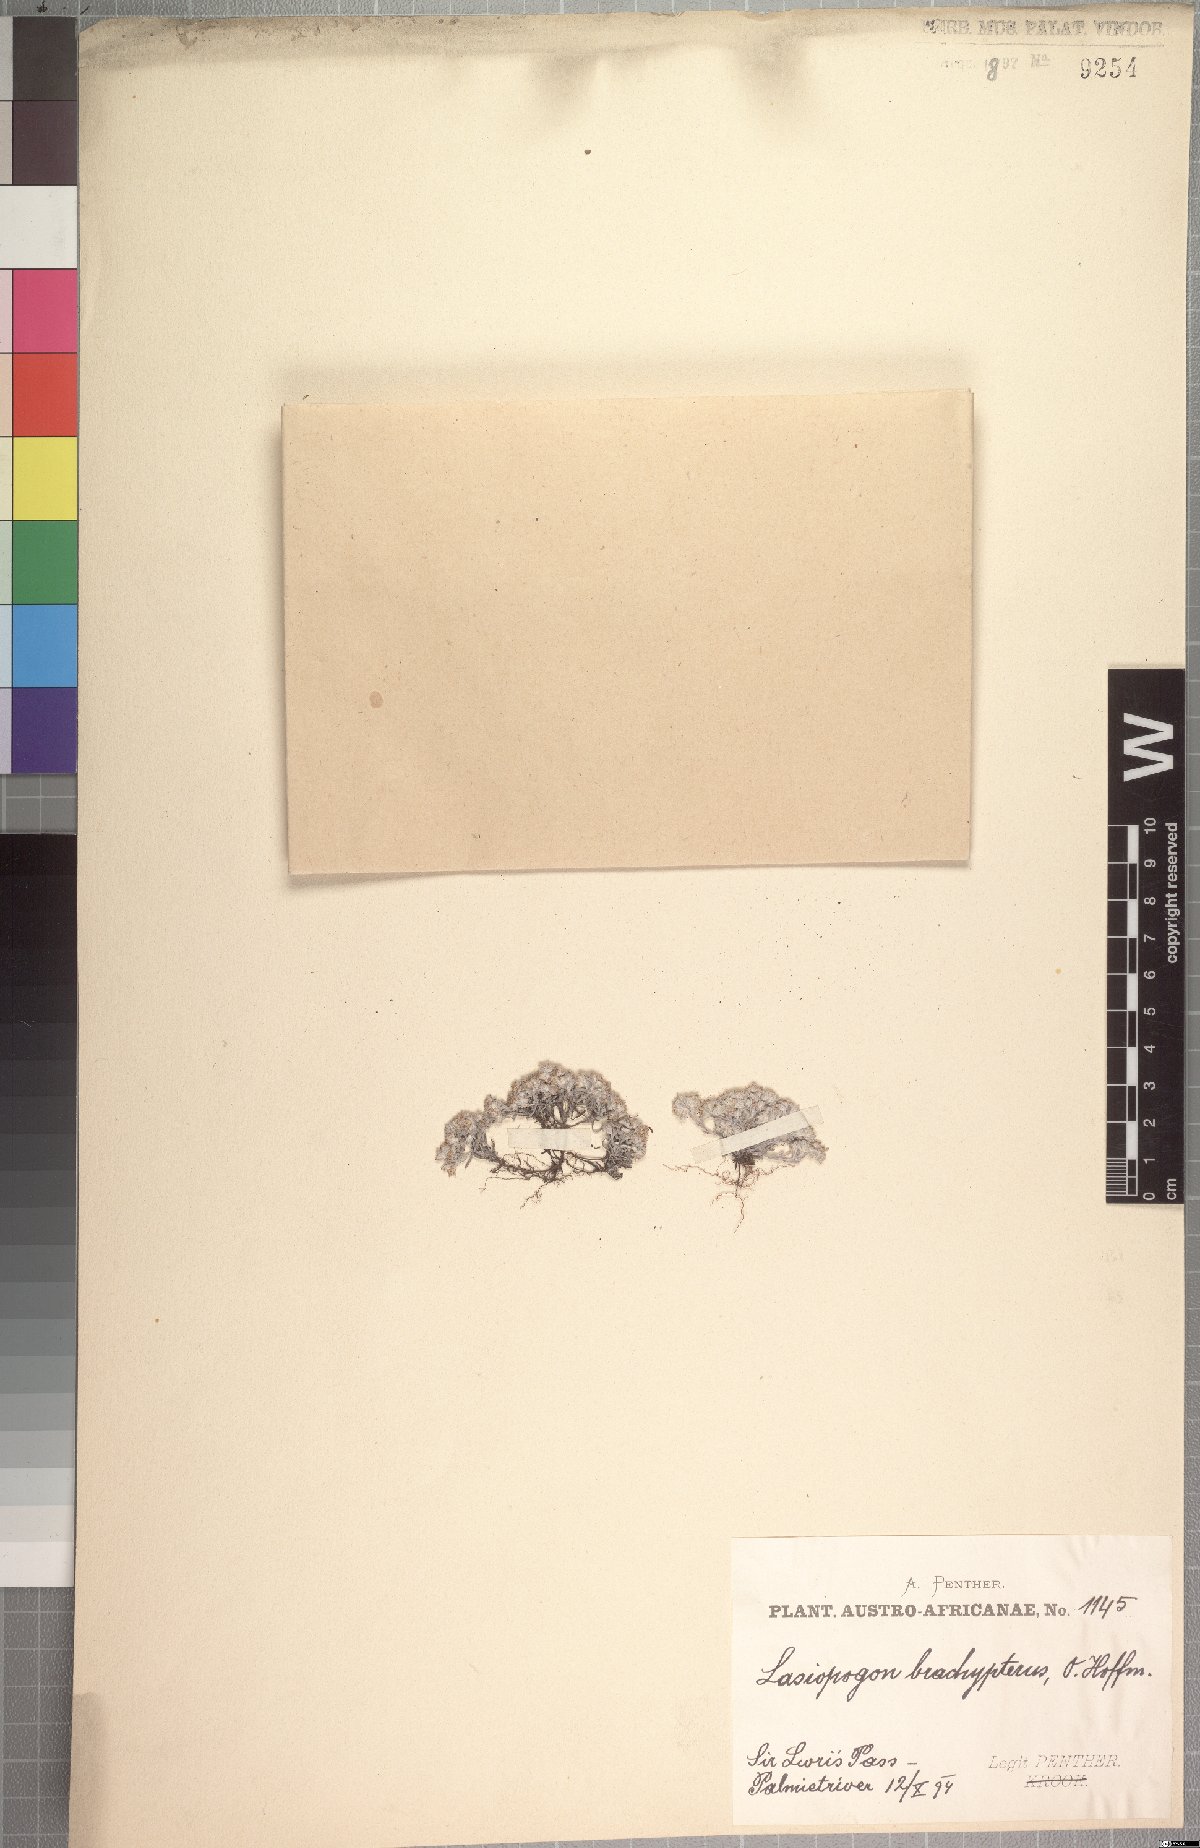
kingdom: Plantae
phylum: Tracheophyta
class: Magnoliopsida
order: Asterales
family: Asteraceae
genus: Lasiopogon
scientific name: Lasiopogon brachypterus
